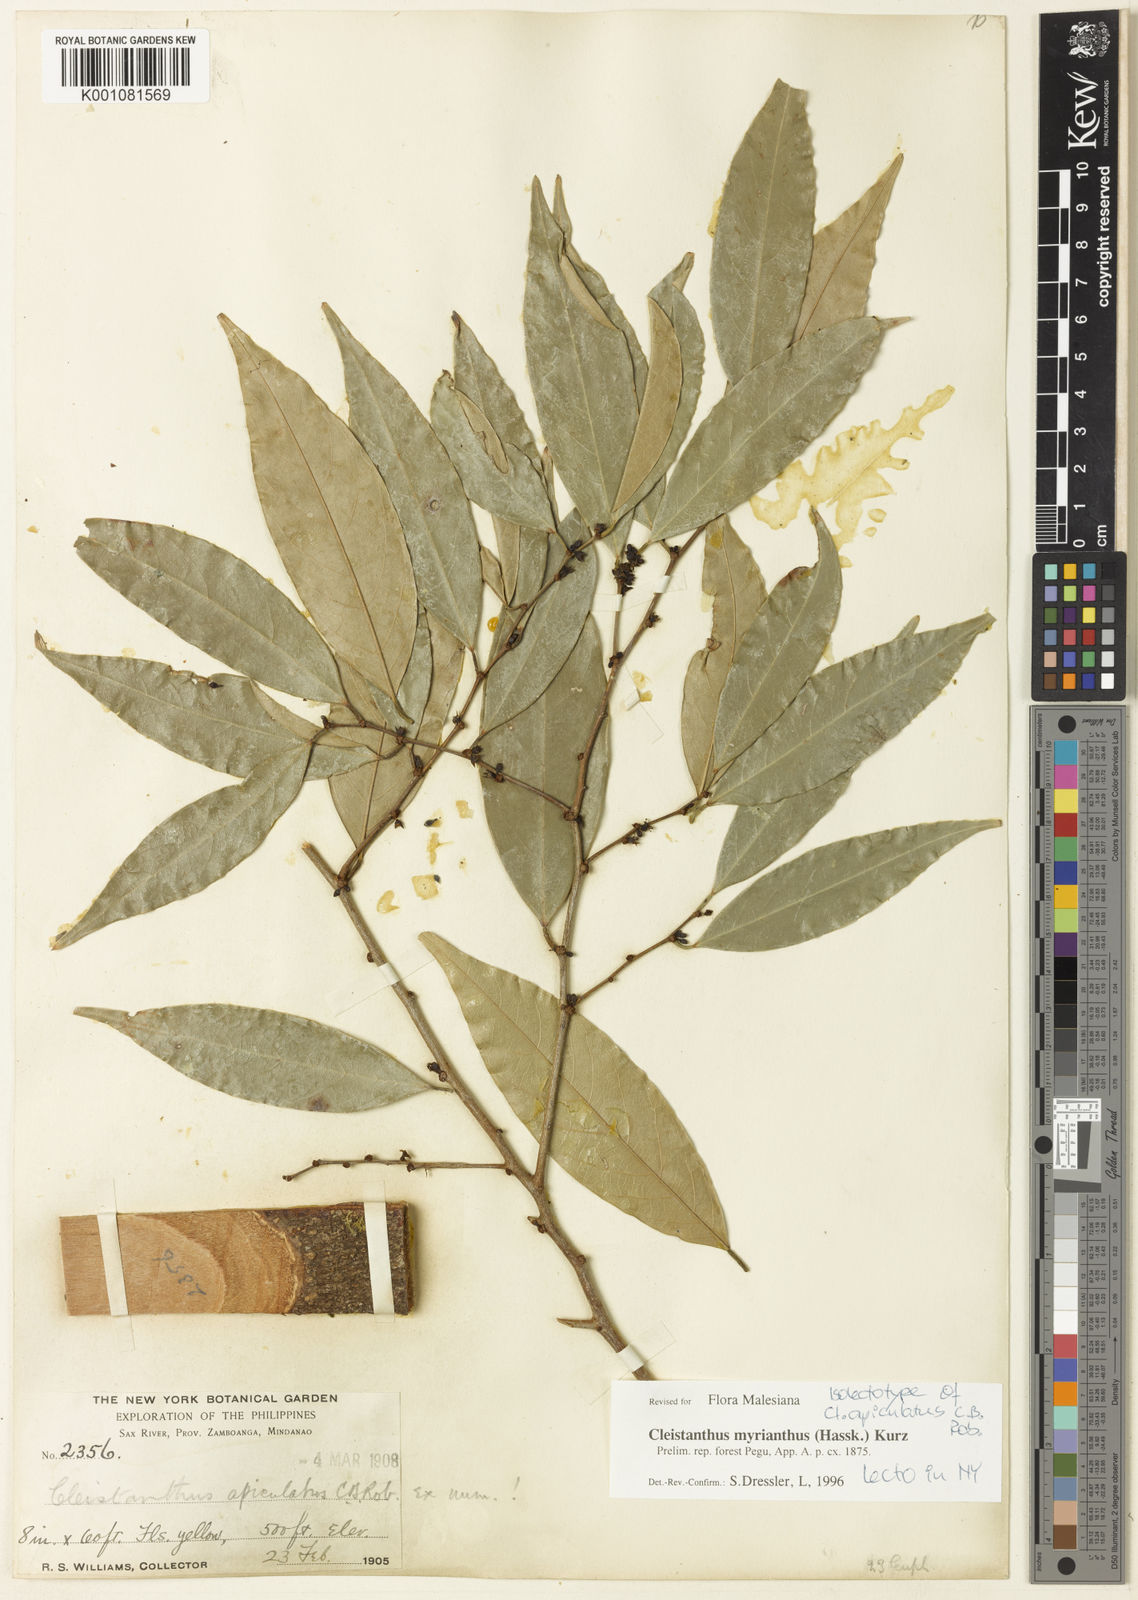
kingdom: Plantae
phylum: Tracheophyta
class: Magnoliopsida
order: Malpighiales
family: Phyllanthaceae
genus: Cleistanthus
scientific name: Cleistanthus oblongifolius
